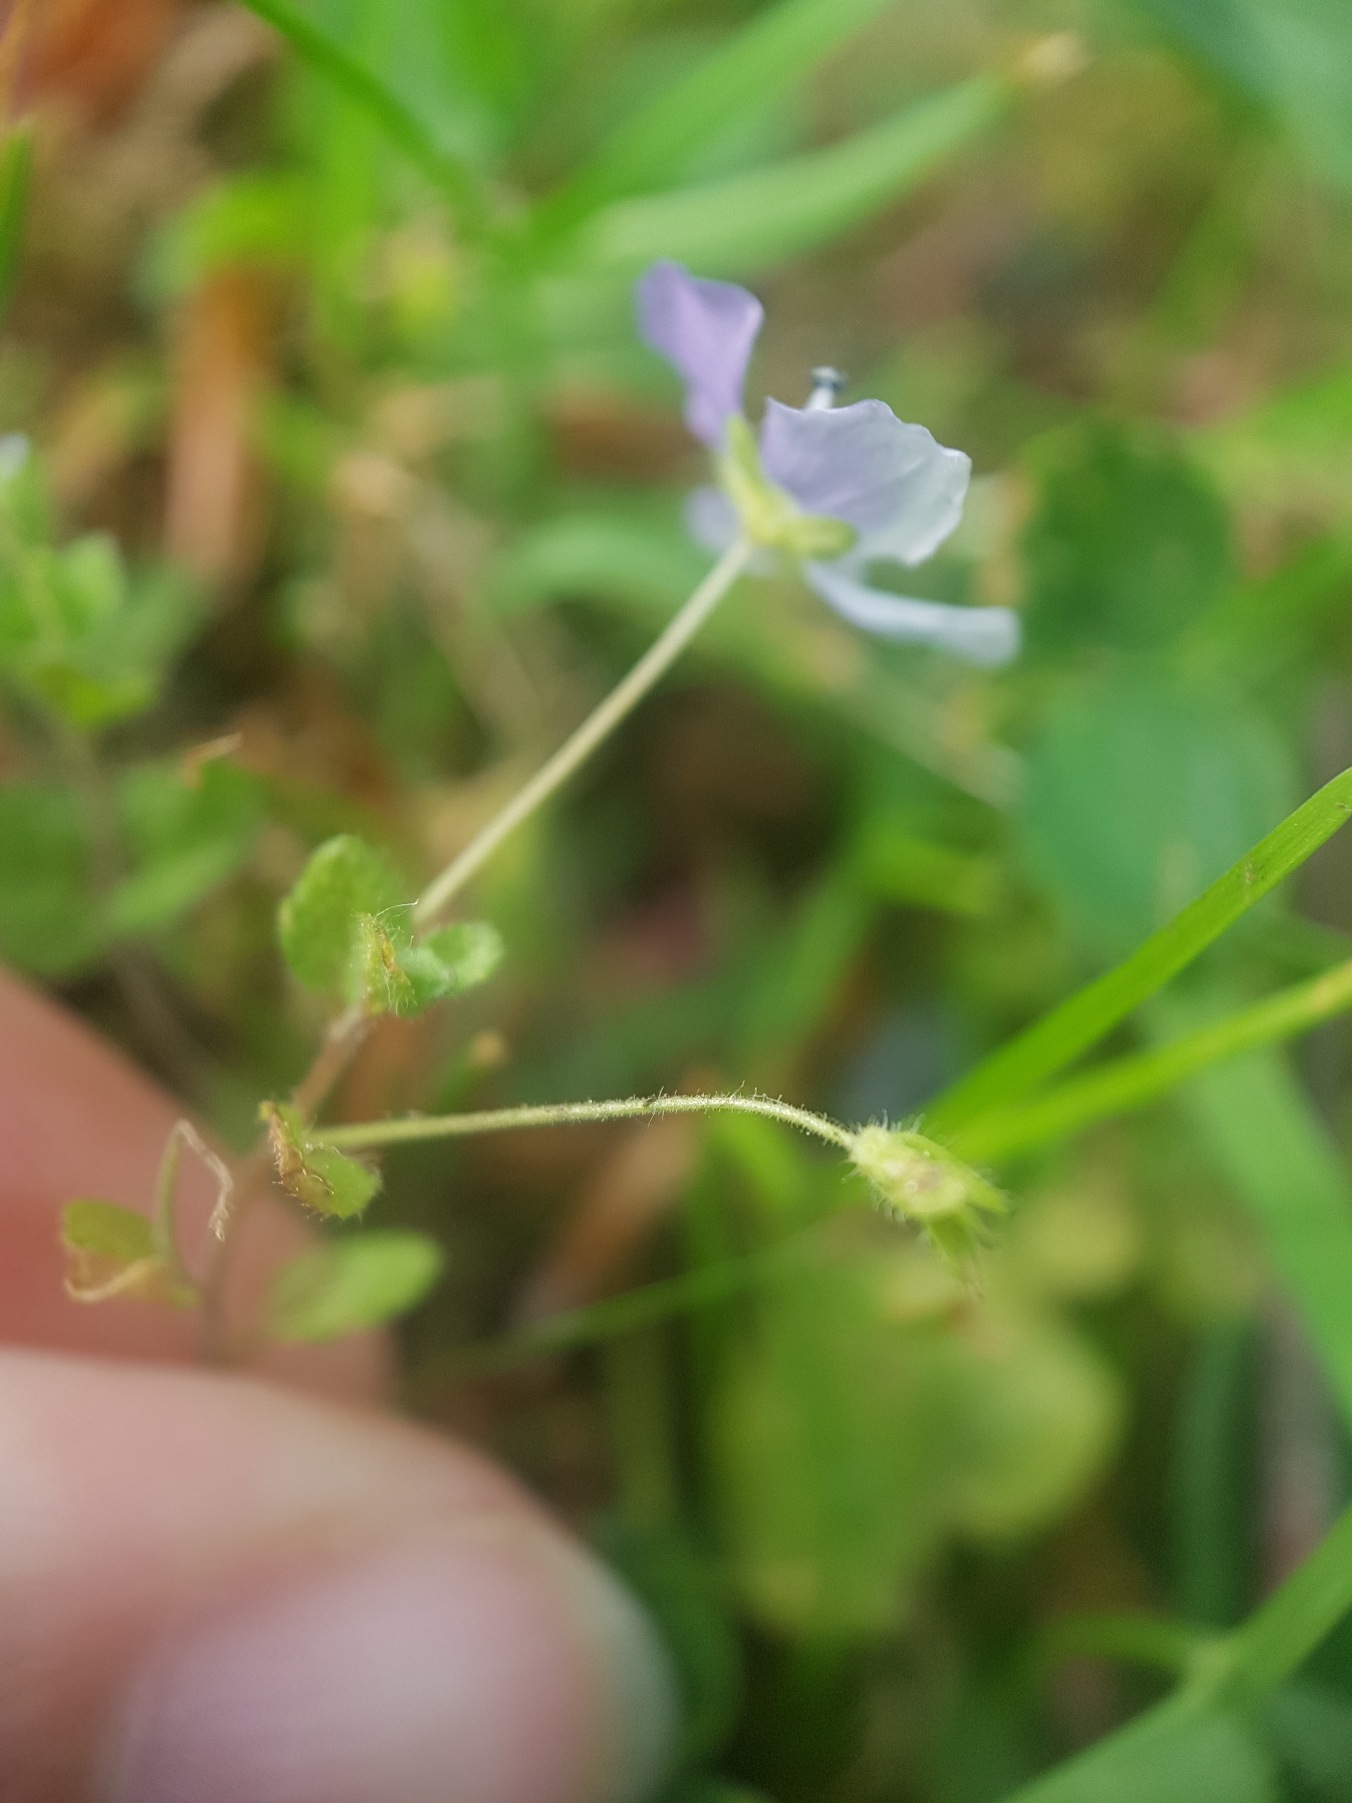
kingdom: Plantae
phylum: Tracheophyta
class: Magnoliopsida
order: Lamiales
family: Plantaginaceae
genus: Veronica
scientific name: Veronica filiformis
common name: Tråd-ærenpris
